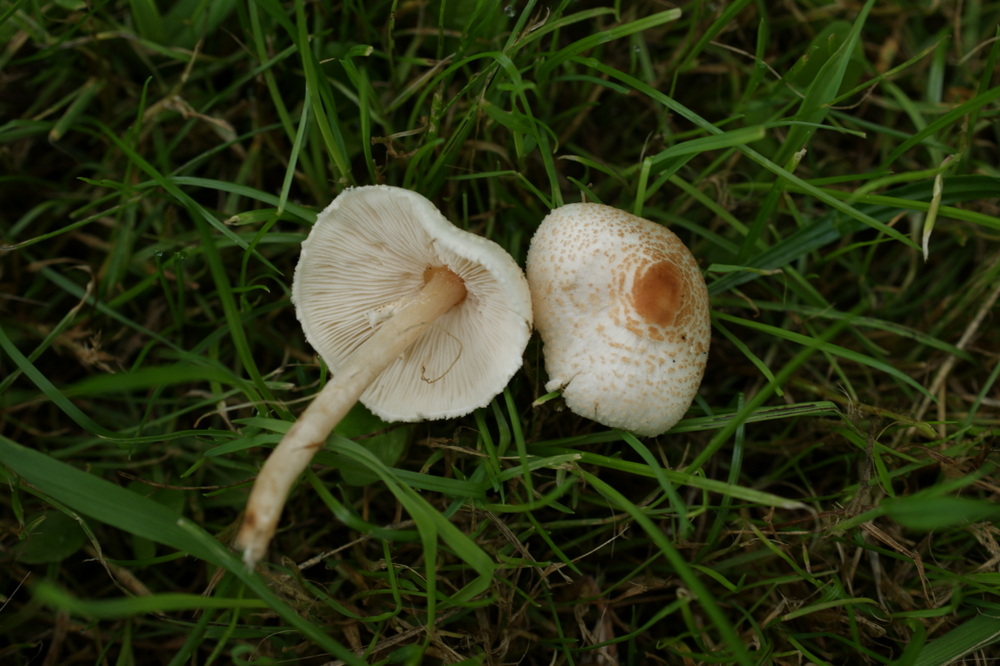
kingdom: Fungi
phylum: Basidiomycota
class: Agaricomycetes
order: Agaricales
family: Agaricaceae
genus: Lepiota
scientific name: Lepiota cristata
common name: stinkende parasolhat
